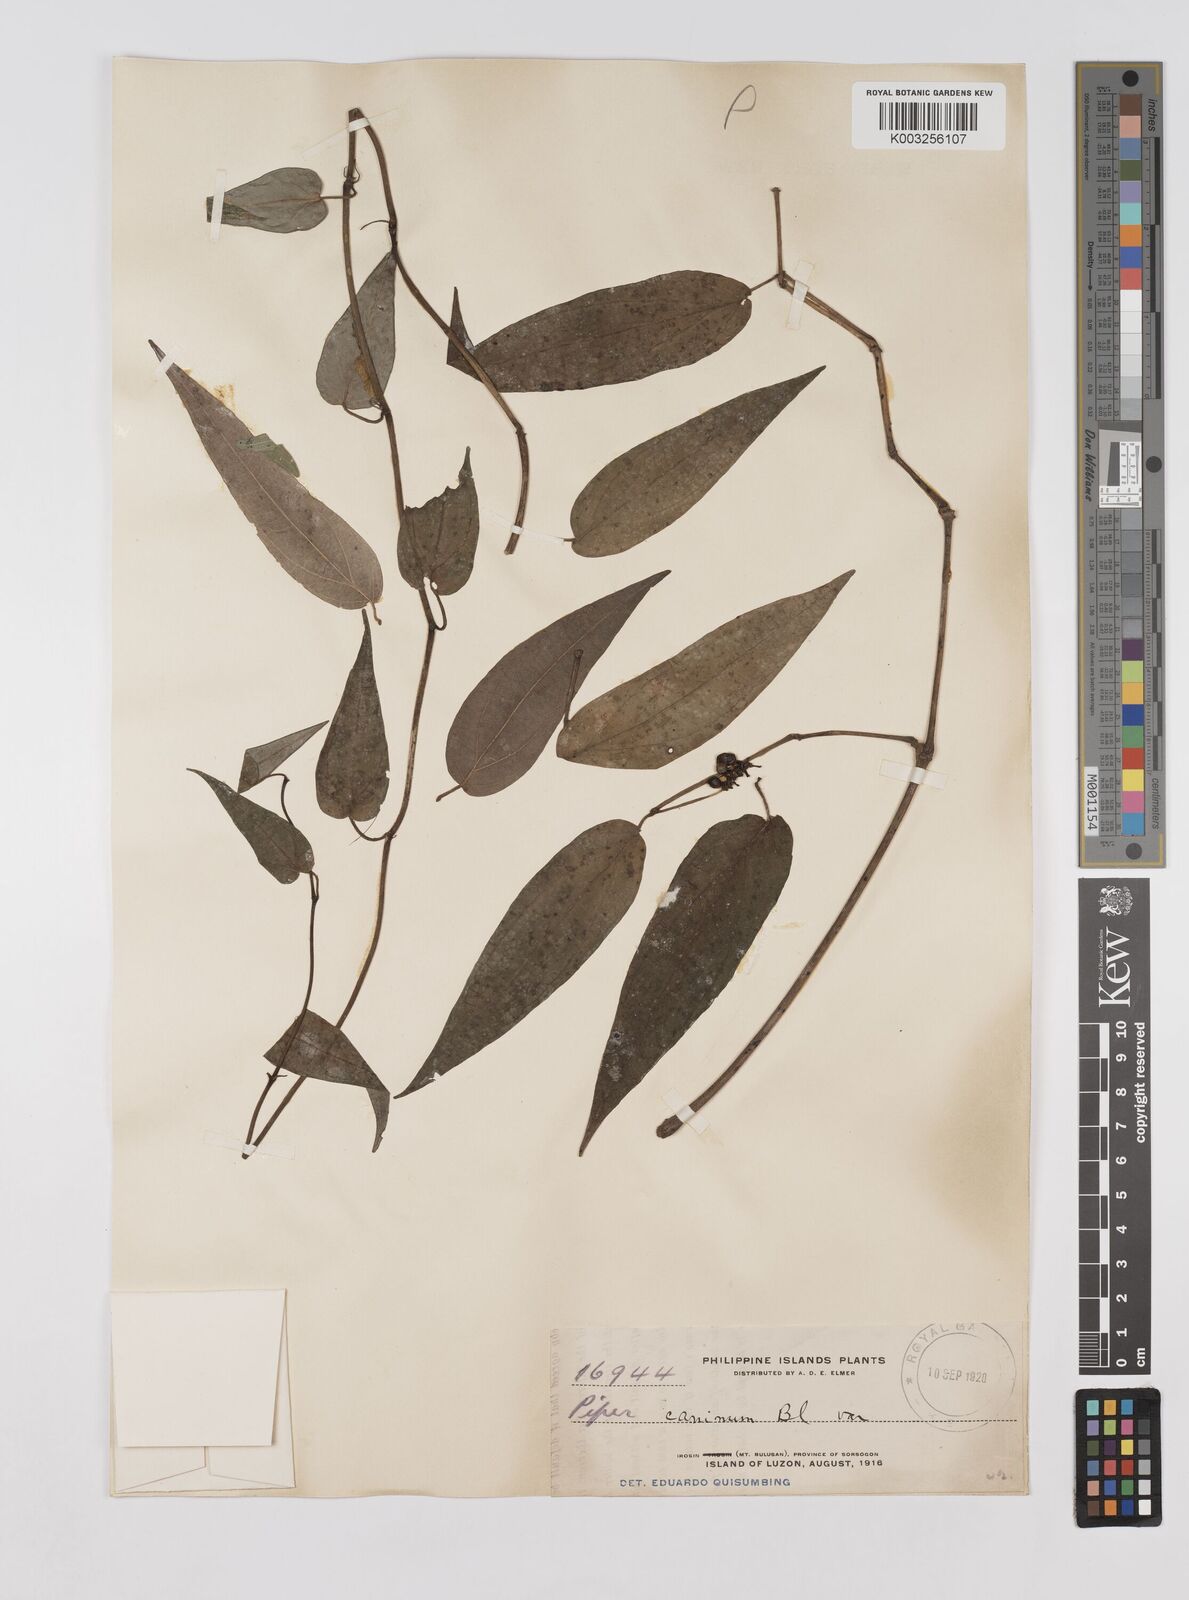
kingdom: Plantae
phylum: Tracheophyta
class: Magnoliopsida
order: Piperales
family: Piperaceae
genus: Piper
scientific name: Piper lanatum
